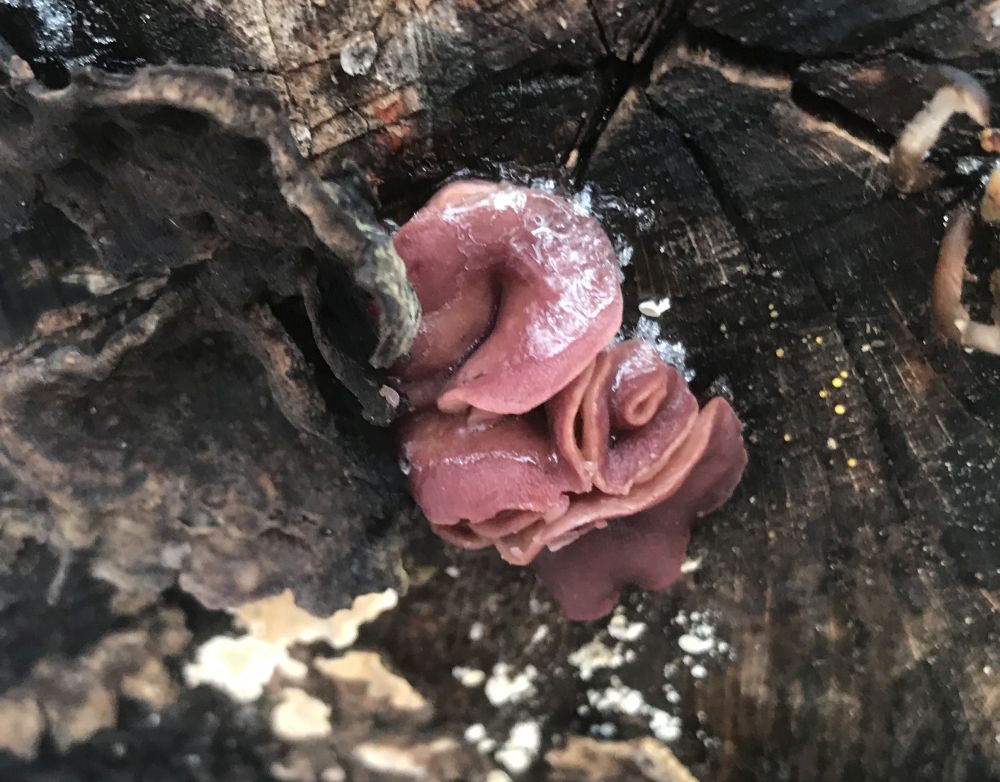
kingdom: Fungi
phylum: Ascomycota
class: Leotiomycetes
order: Helotiales
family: Gelatinodiscaceae
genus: Ascocoryne
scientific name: Ascocoryne cylichnium
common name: stor sejskive
